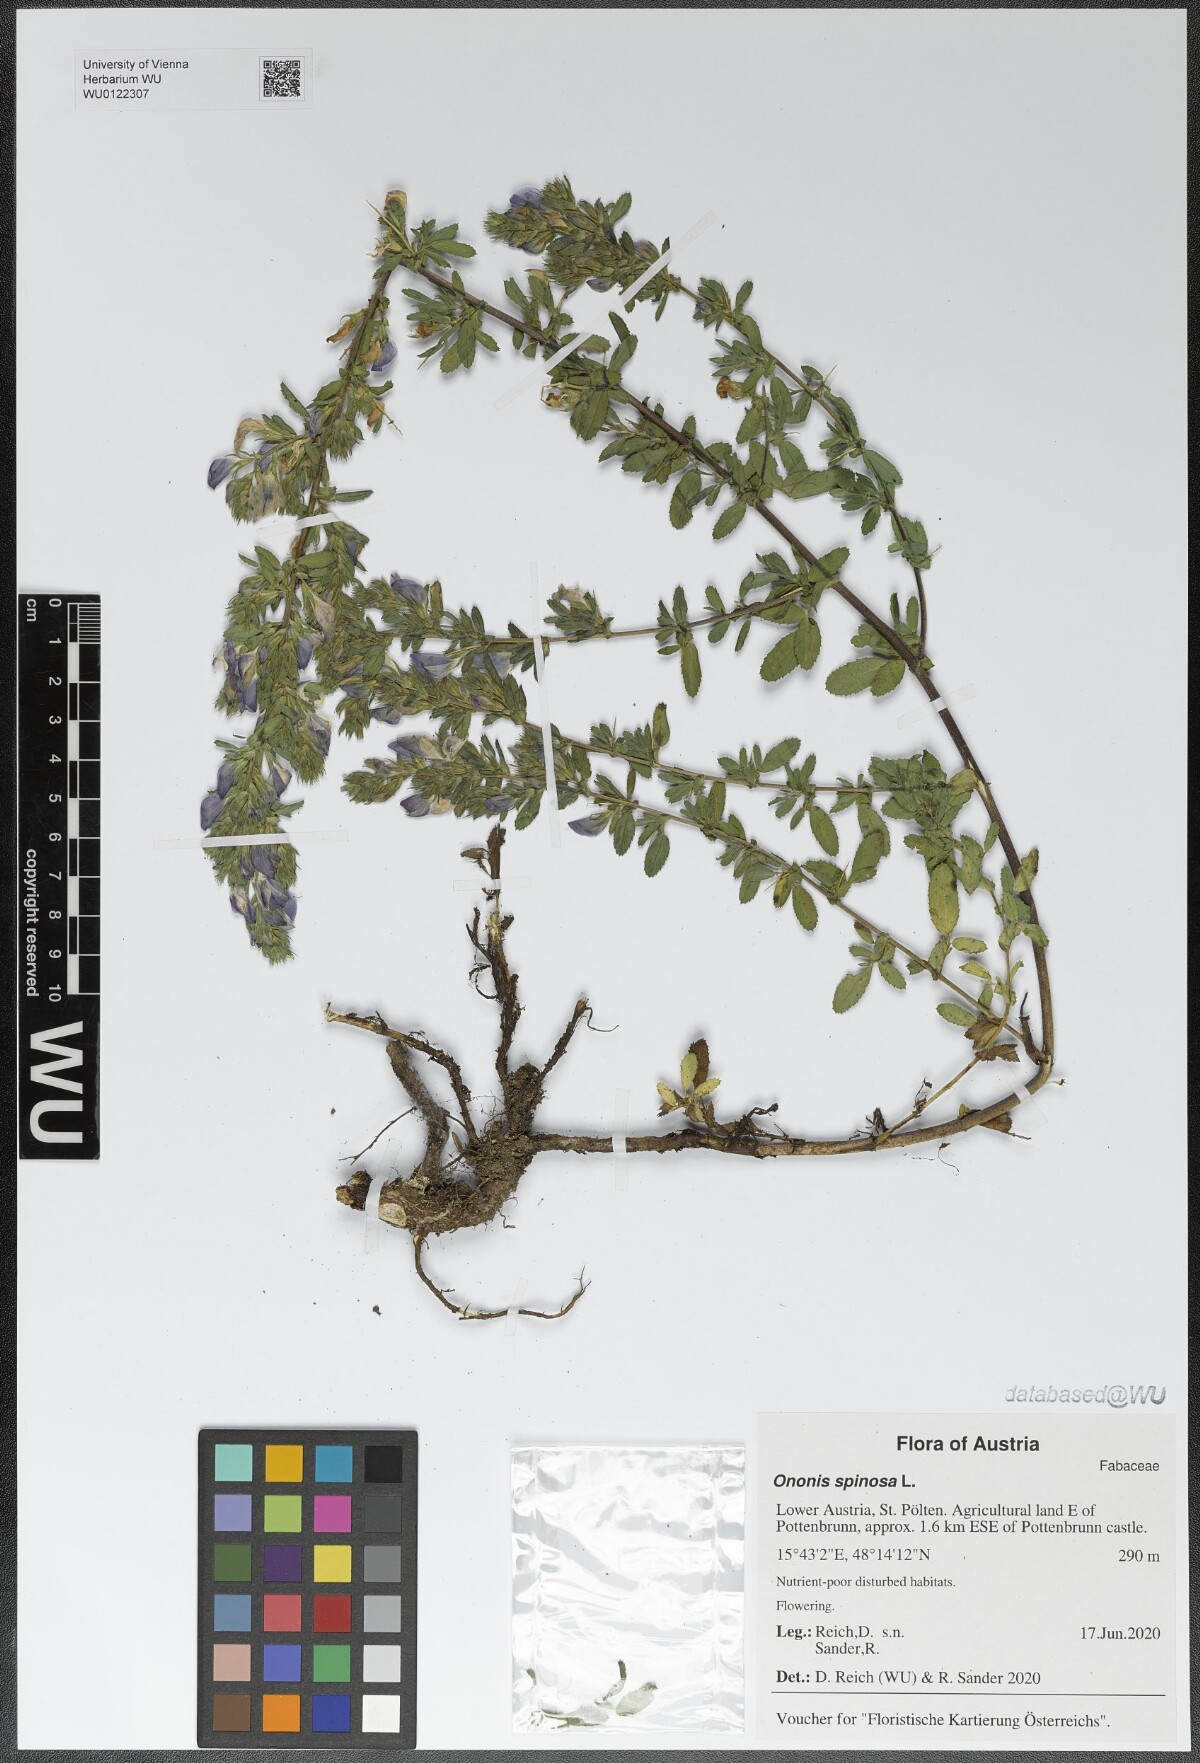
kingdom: Plantae
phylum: Tracheophyta
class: Magnoliopsida
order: Fabales
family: Fabaceae
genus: Ononis
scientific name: Ononis spinosa
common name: Spiny restharrow
